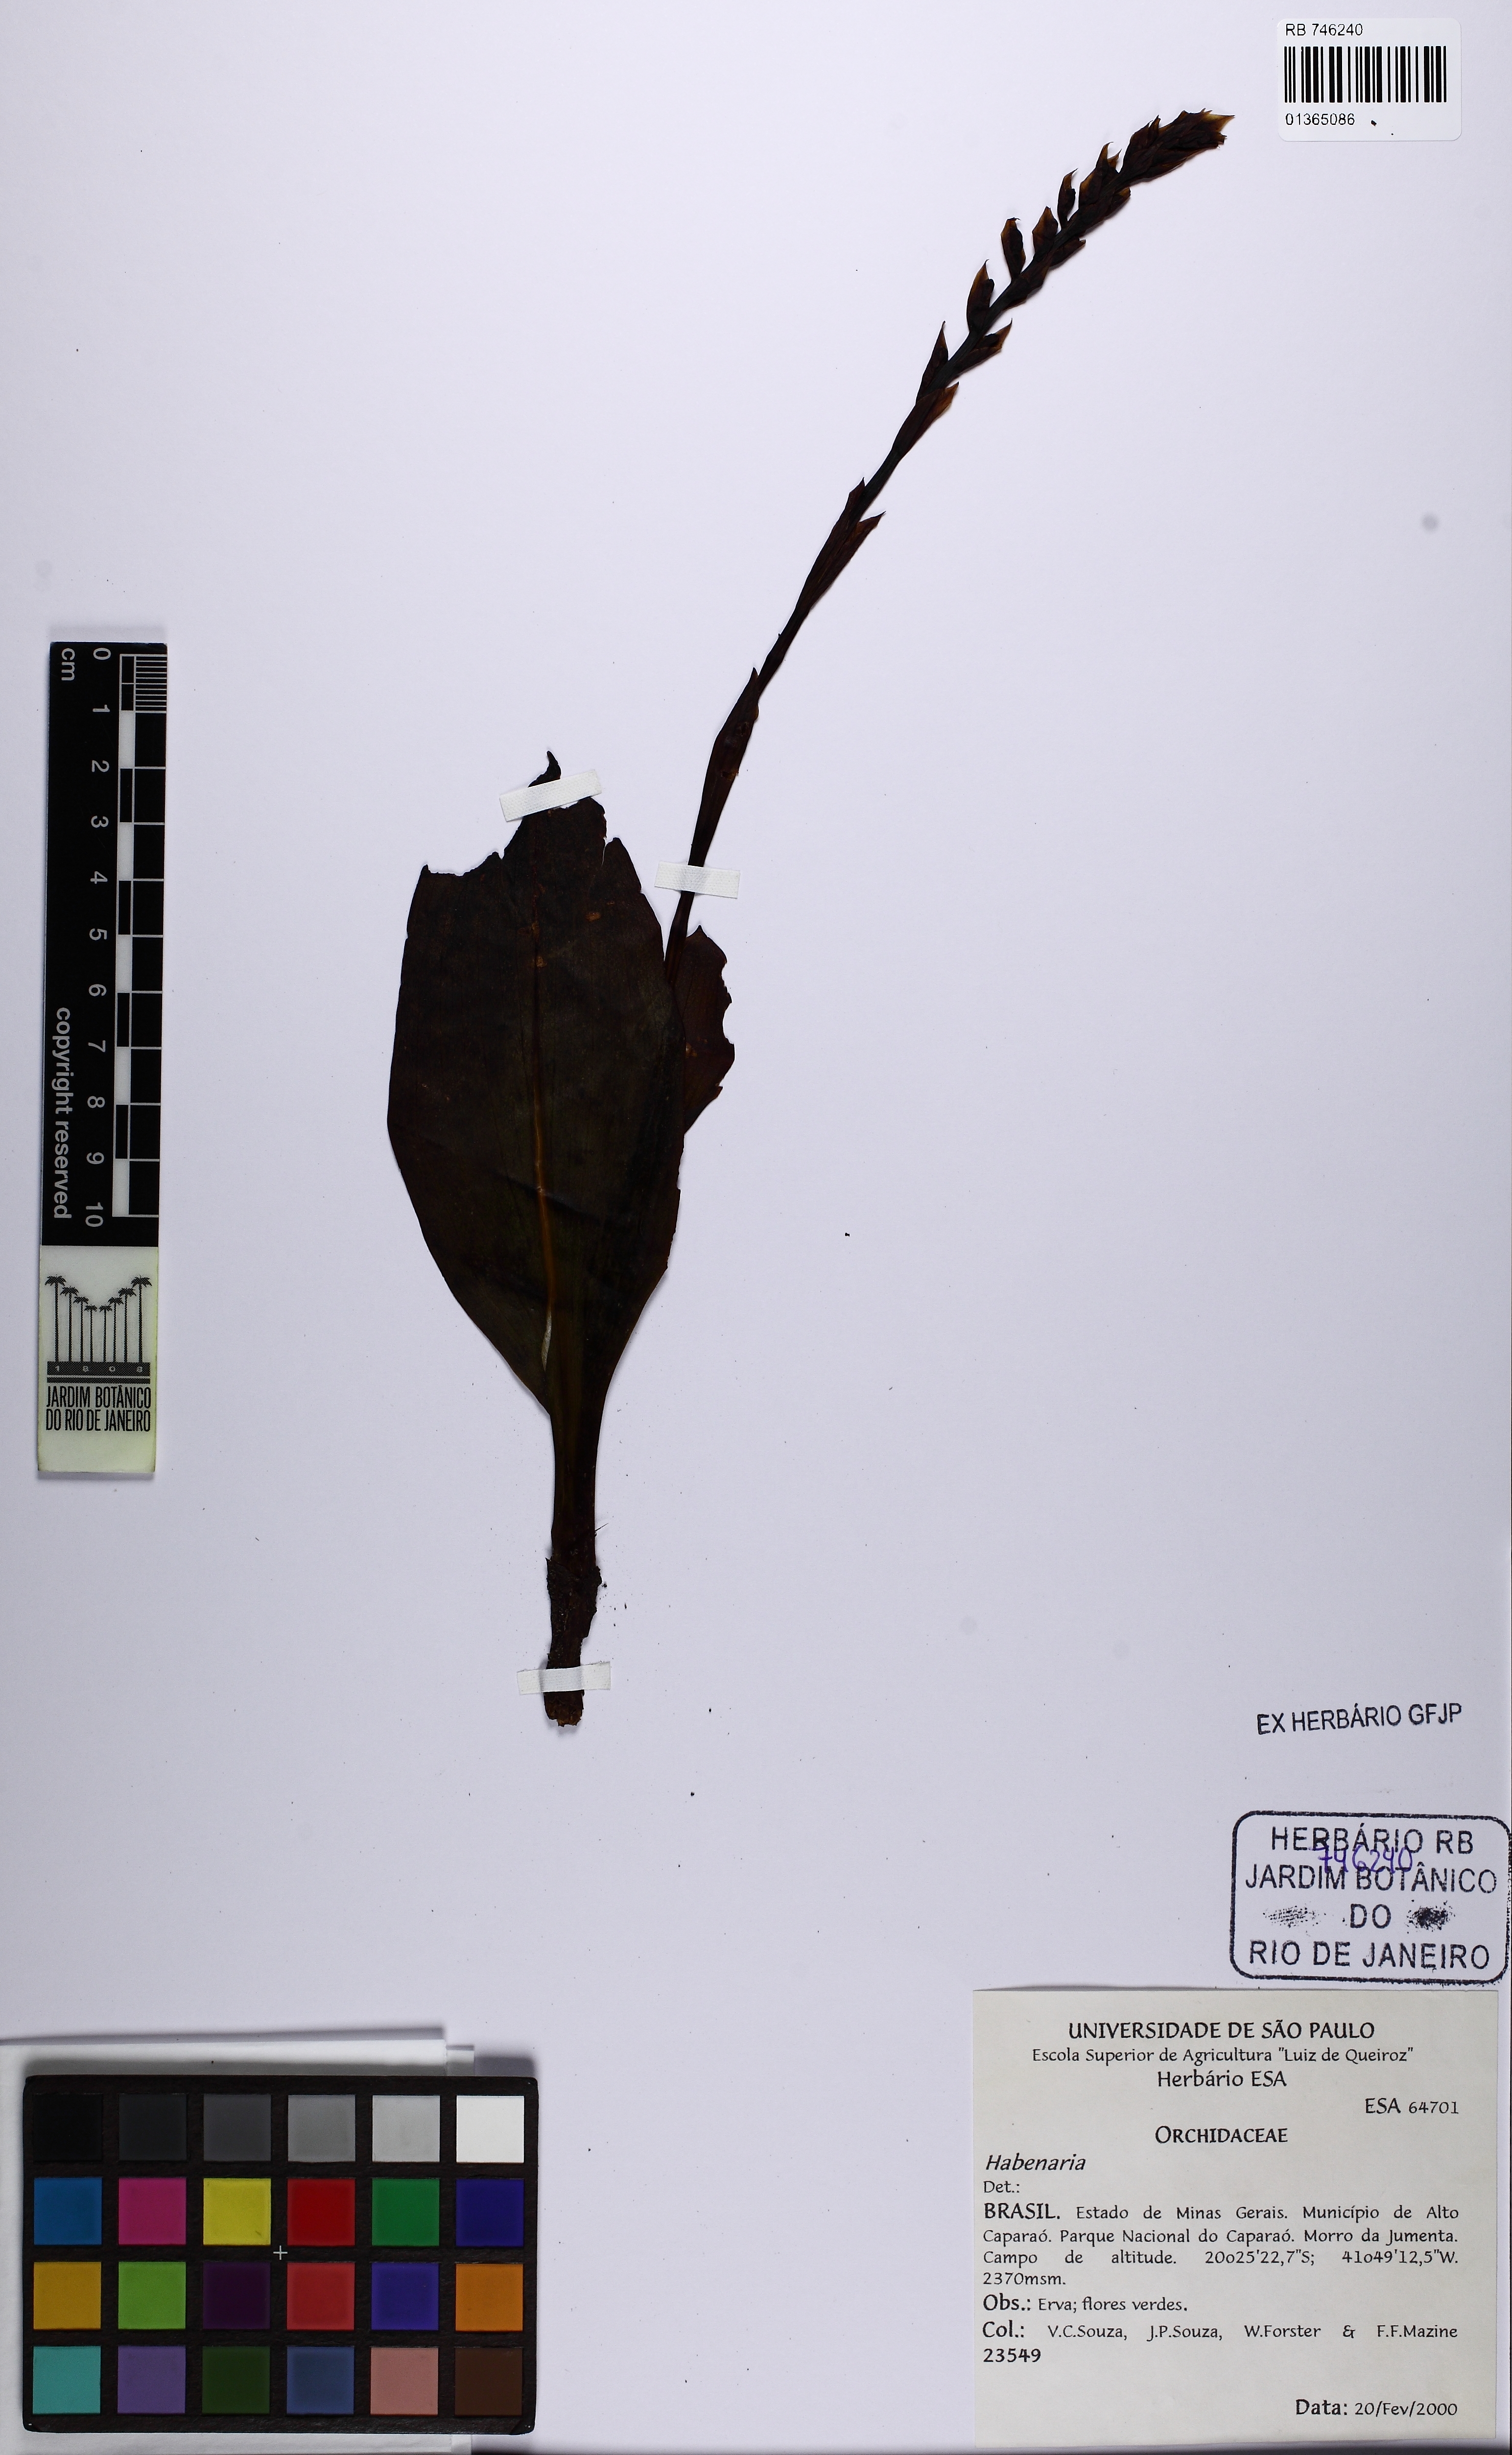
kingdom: Plantae
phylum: Tracheophyta
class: Liliopsida
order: Asparagales
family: Orchidaceae
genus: Habenaria
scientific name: Habenaria
